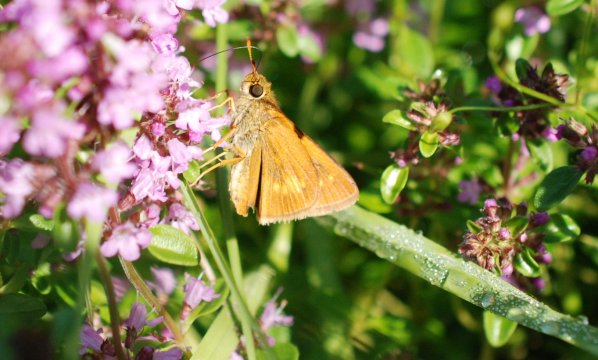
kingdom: Animalia
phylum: Arthropoda
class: Insecta
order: Lepidoptera
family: Hesperiidae
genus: Euphyes
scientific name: Euphyes conspicua
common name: Black Dash
